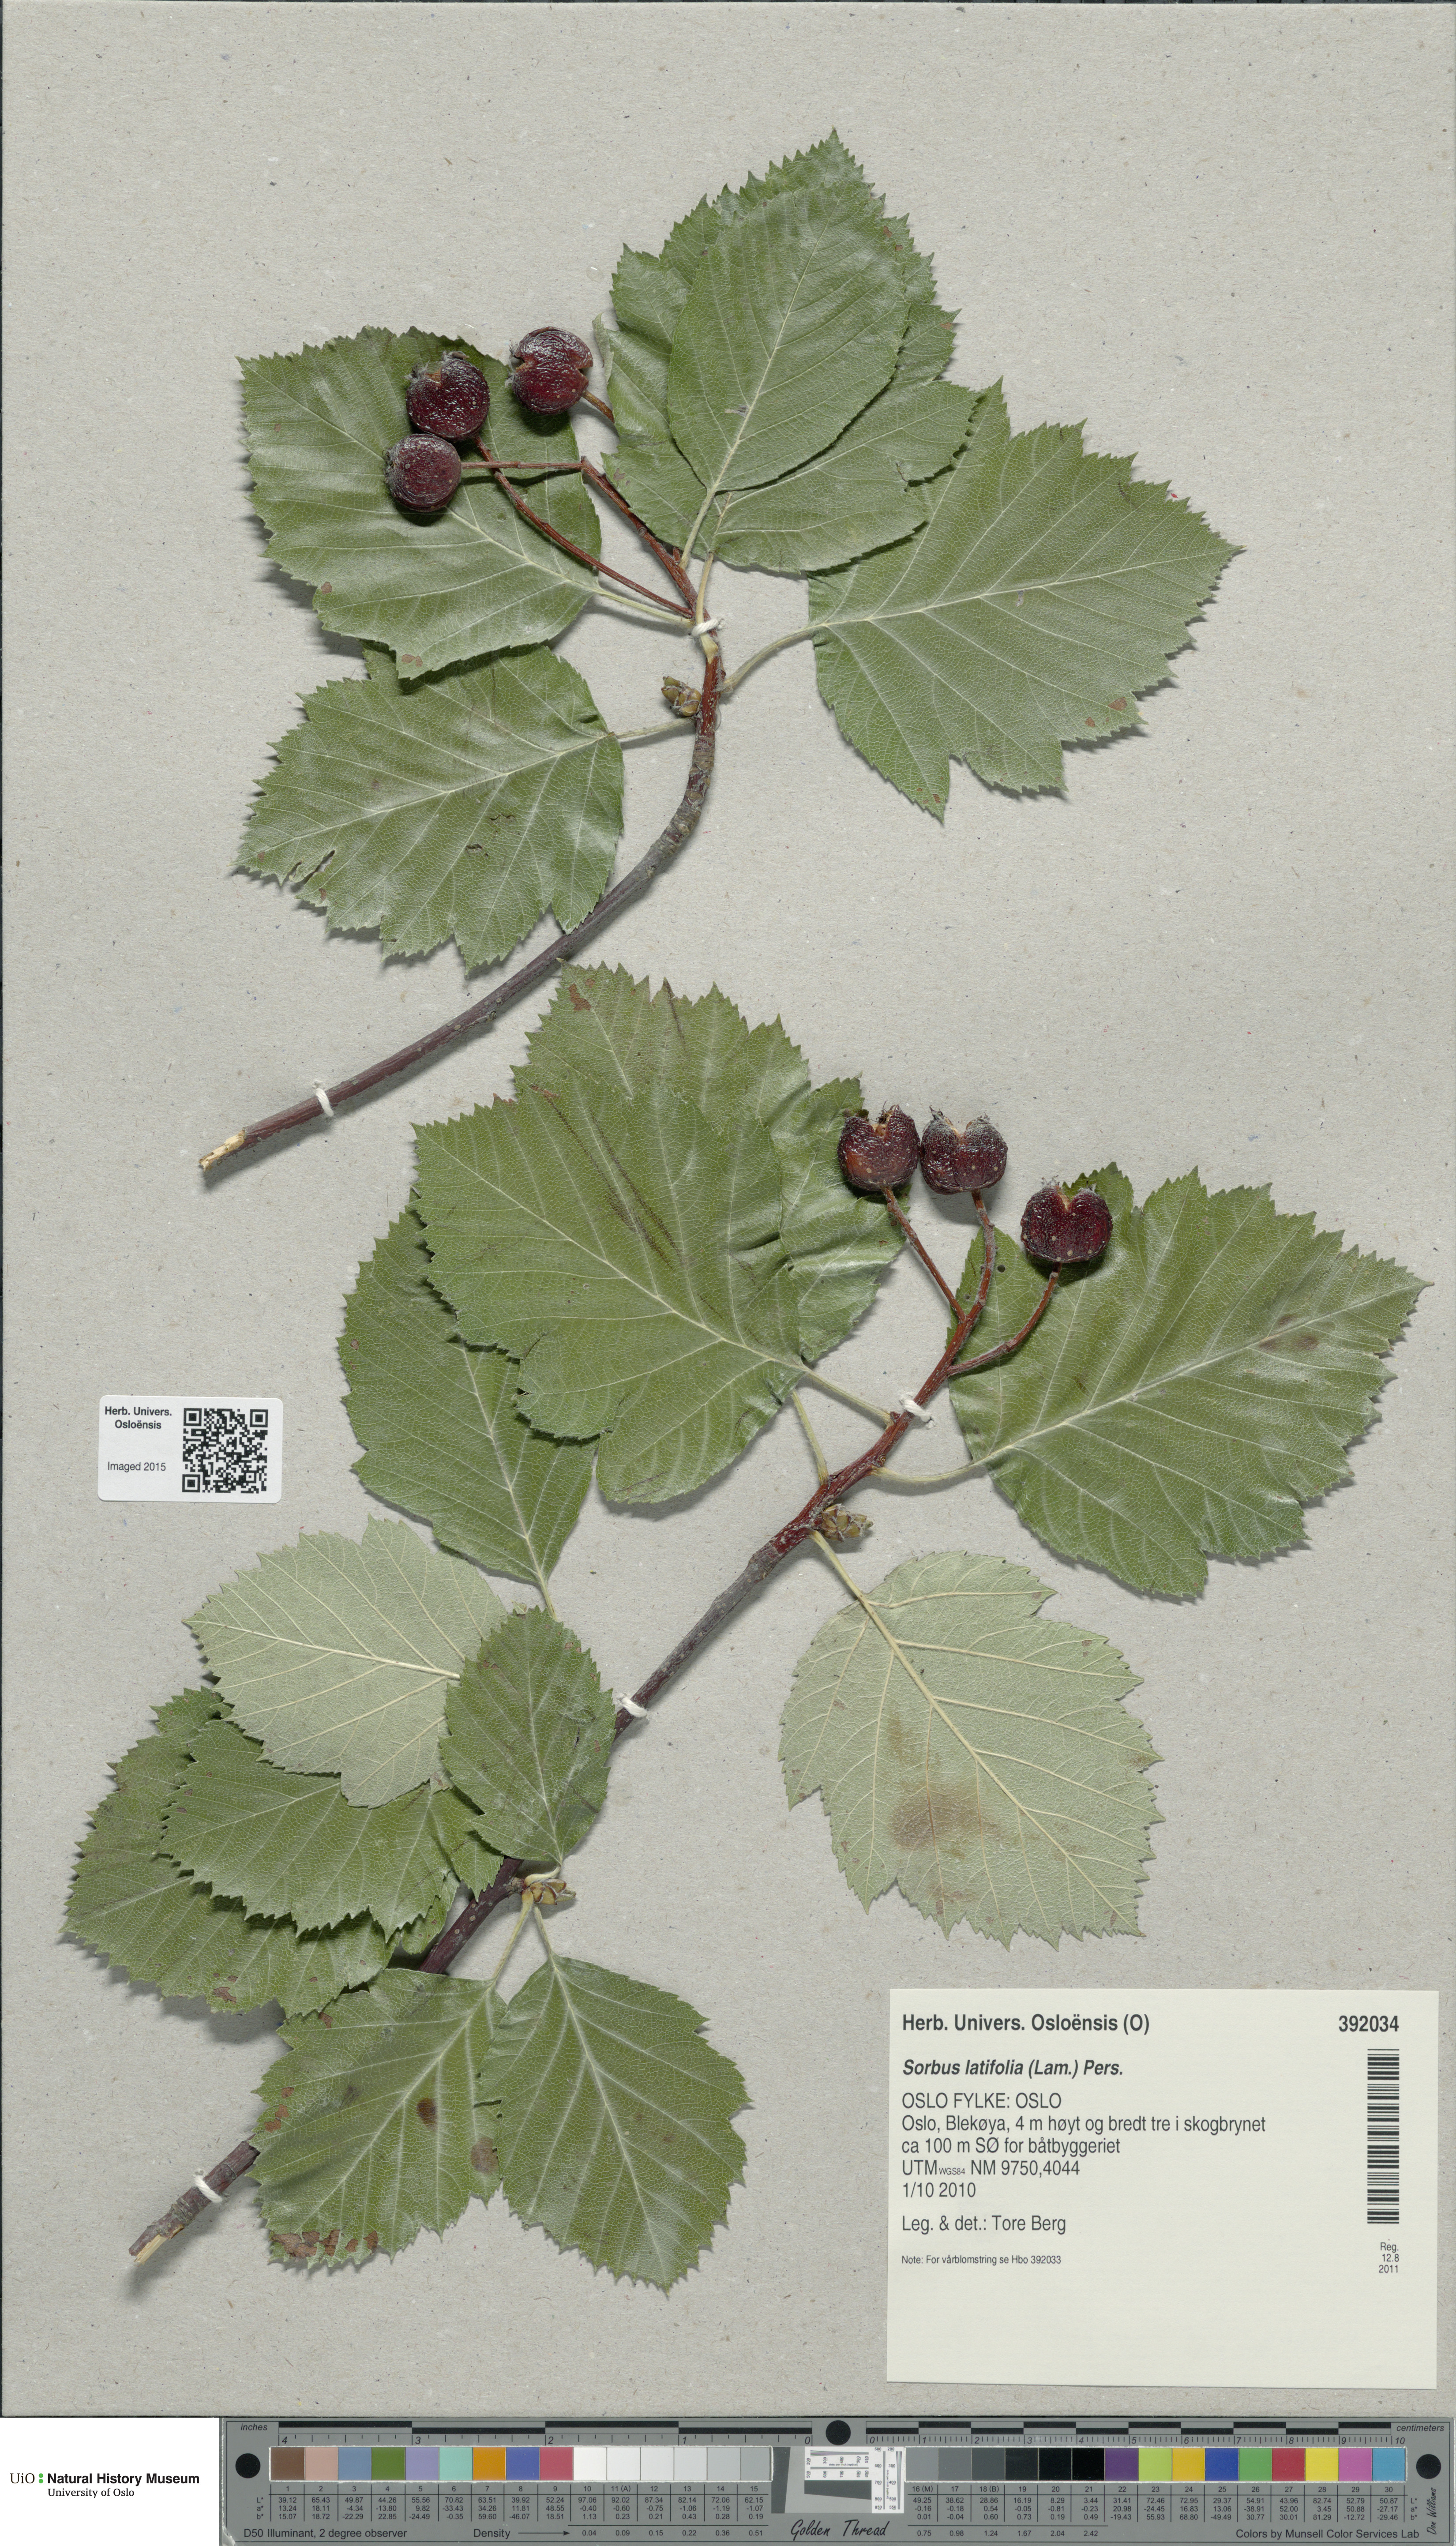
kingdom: Plantae
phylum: Tracheophyta
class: Magnoliopsida
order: Rosales
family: Rosaceae
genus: Karpatiosorbus
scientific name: Karpatiosorbus latifolia
